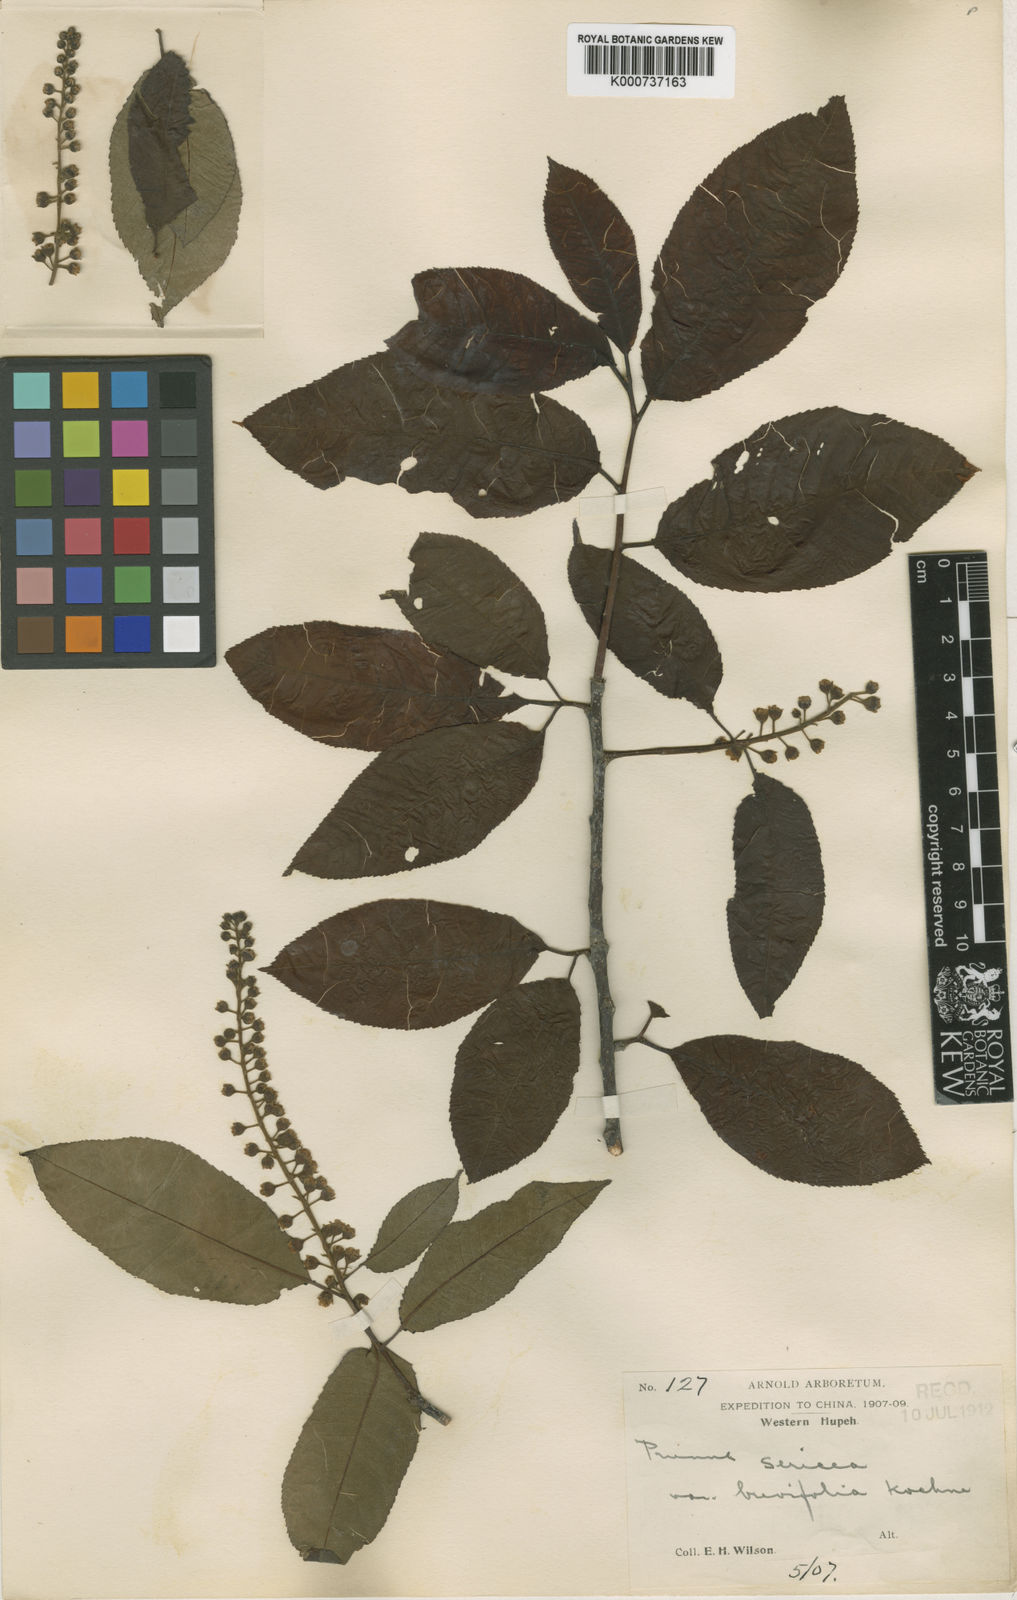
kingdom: Plantae
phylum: Tracheophyta
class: Magnoliopsida
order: Rosales
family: Rosaceae
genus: Prunus
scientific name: Prunus wilsonii
